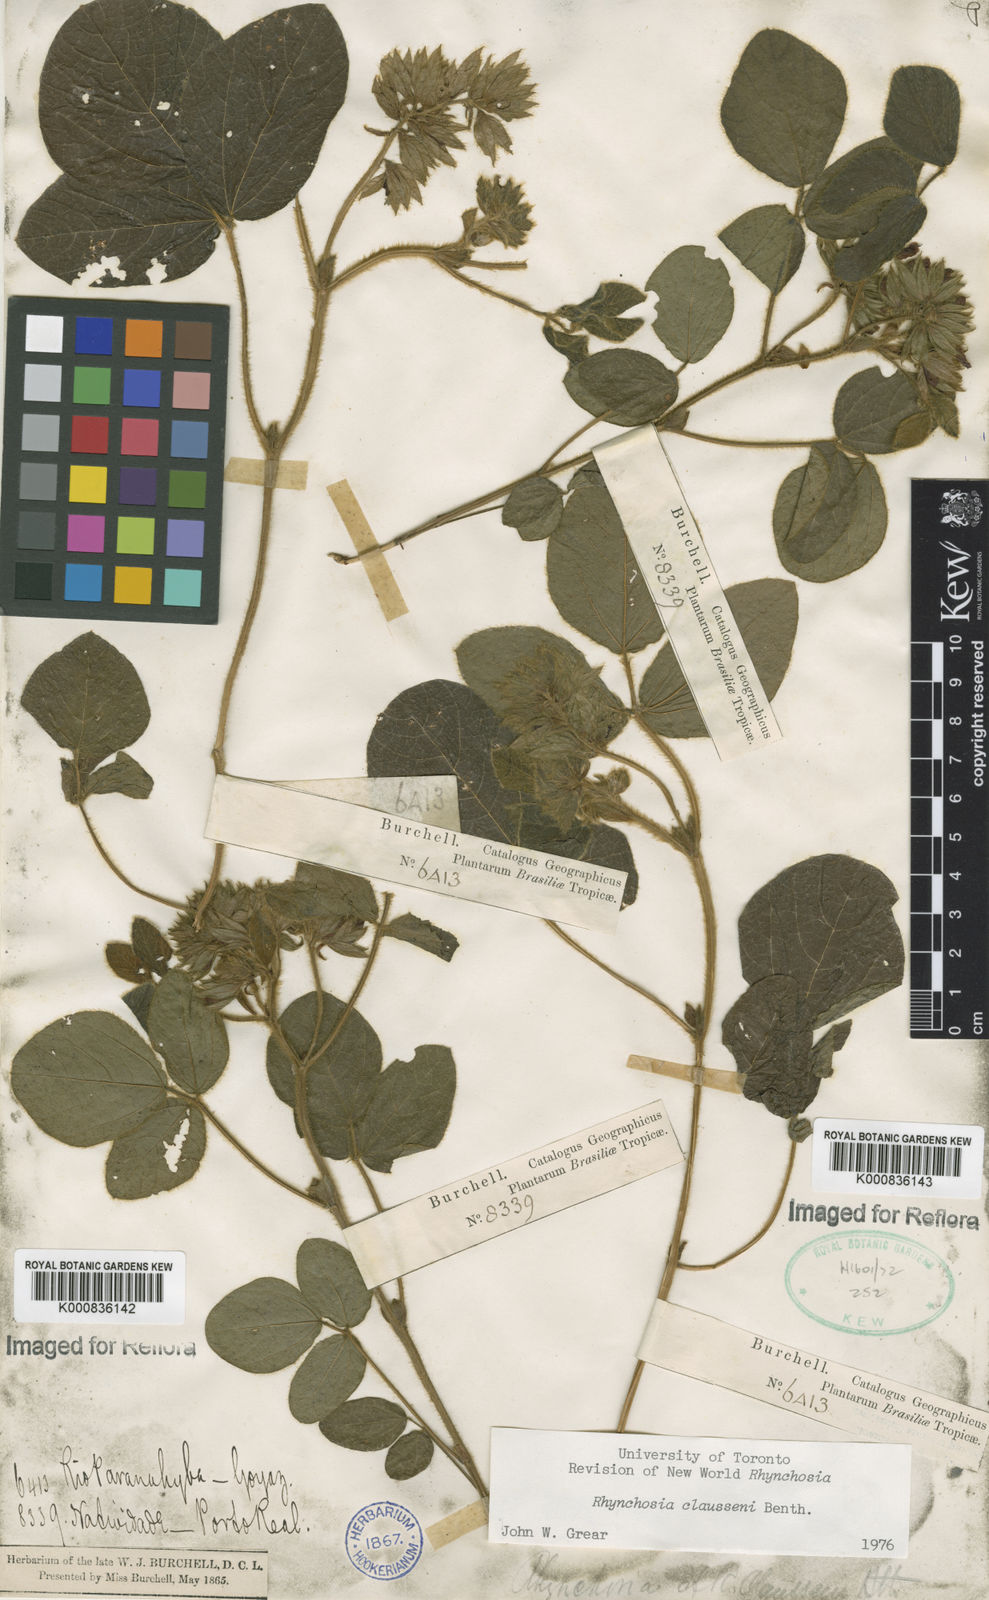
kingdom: Plantae
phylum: Tracheophyta
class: Magnoliopsida
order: Fabales
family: Fabaceae
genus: Rhynchosia
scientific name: Rhynchosia claussenii
